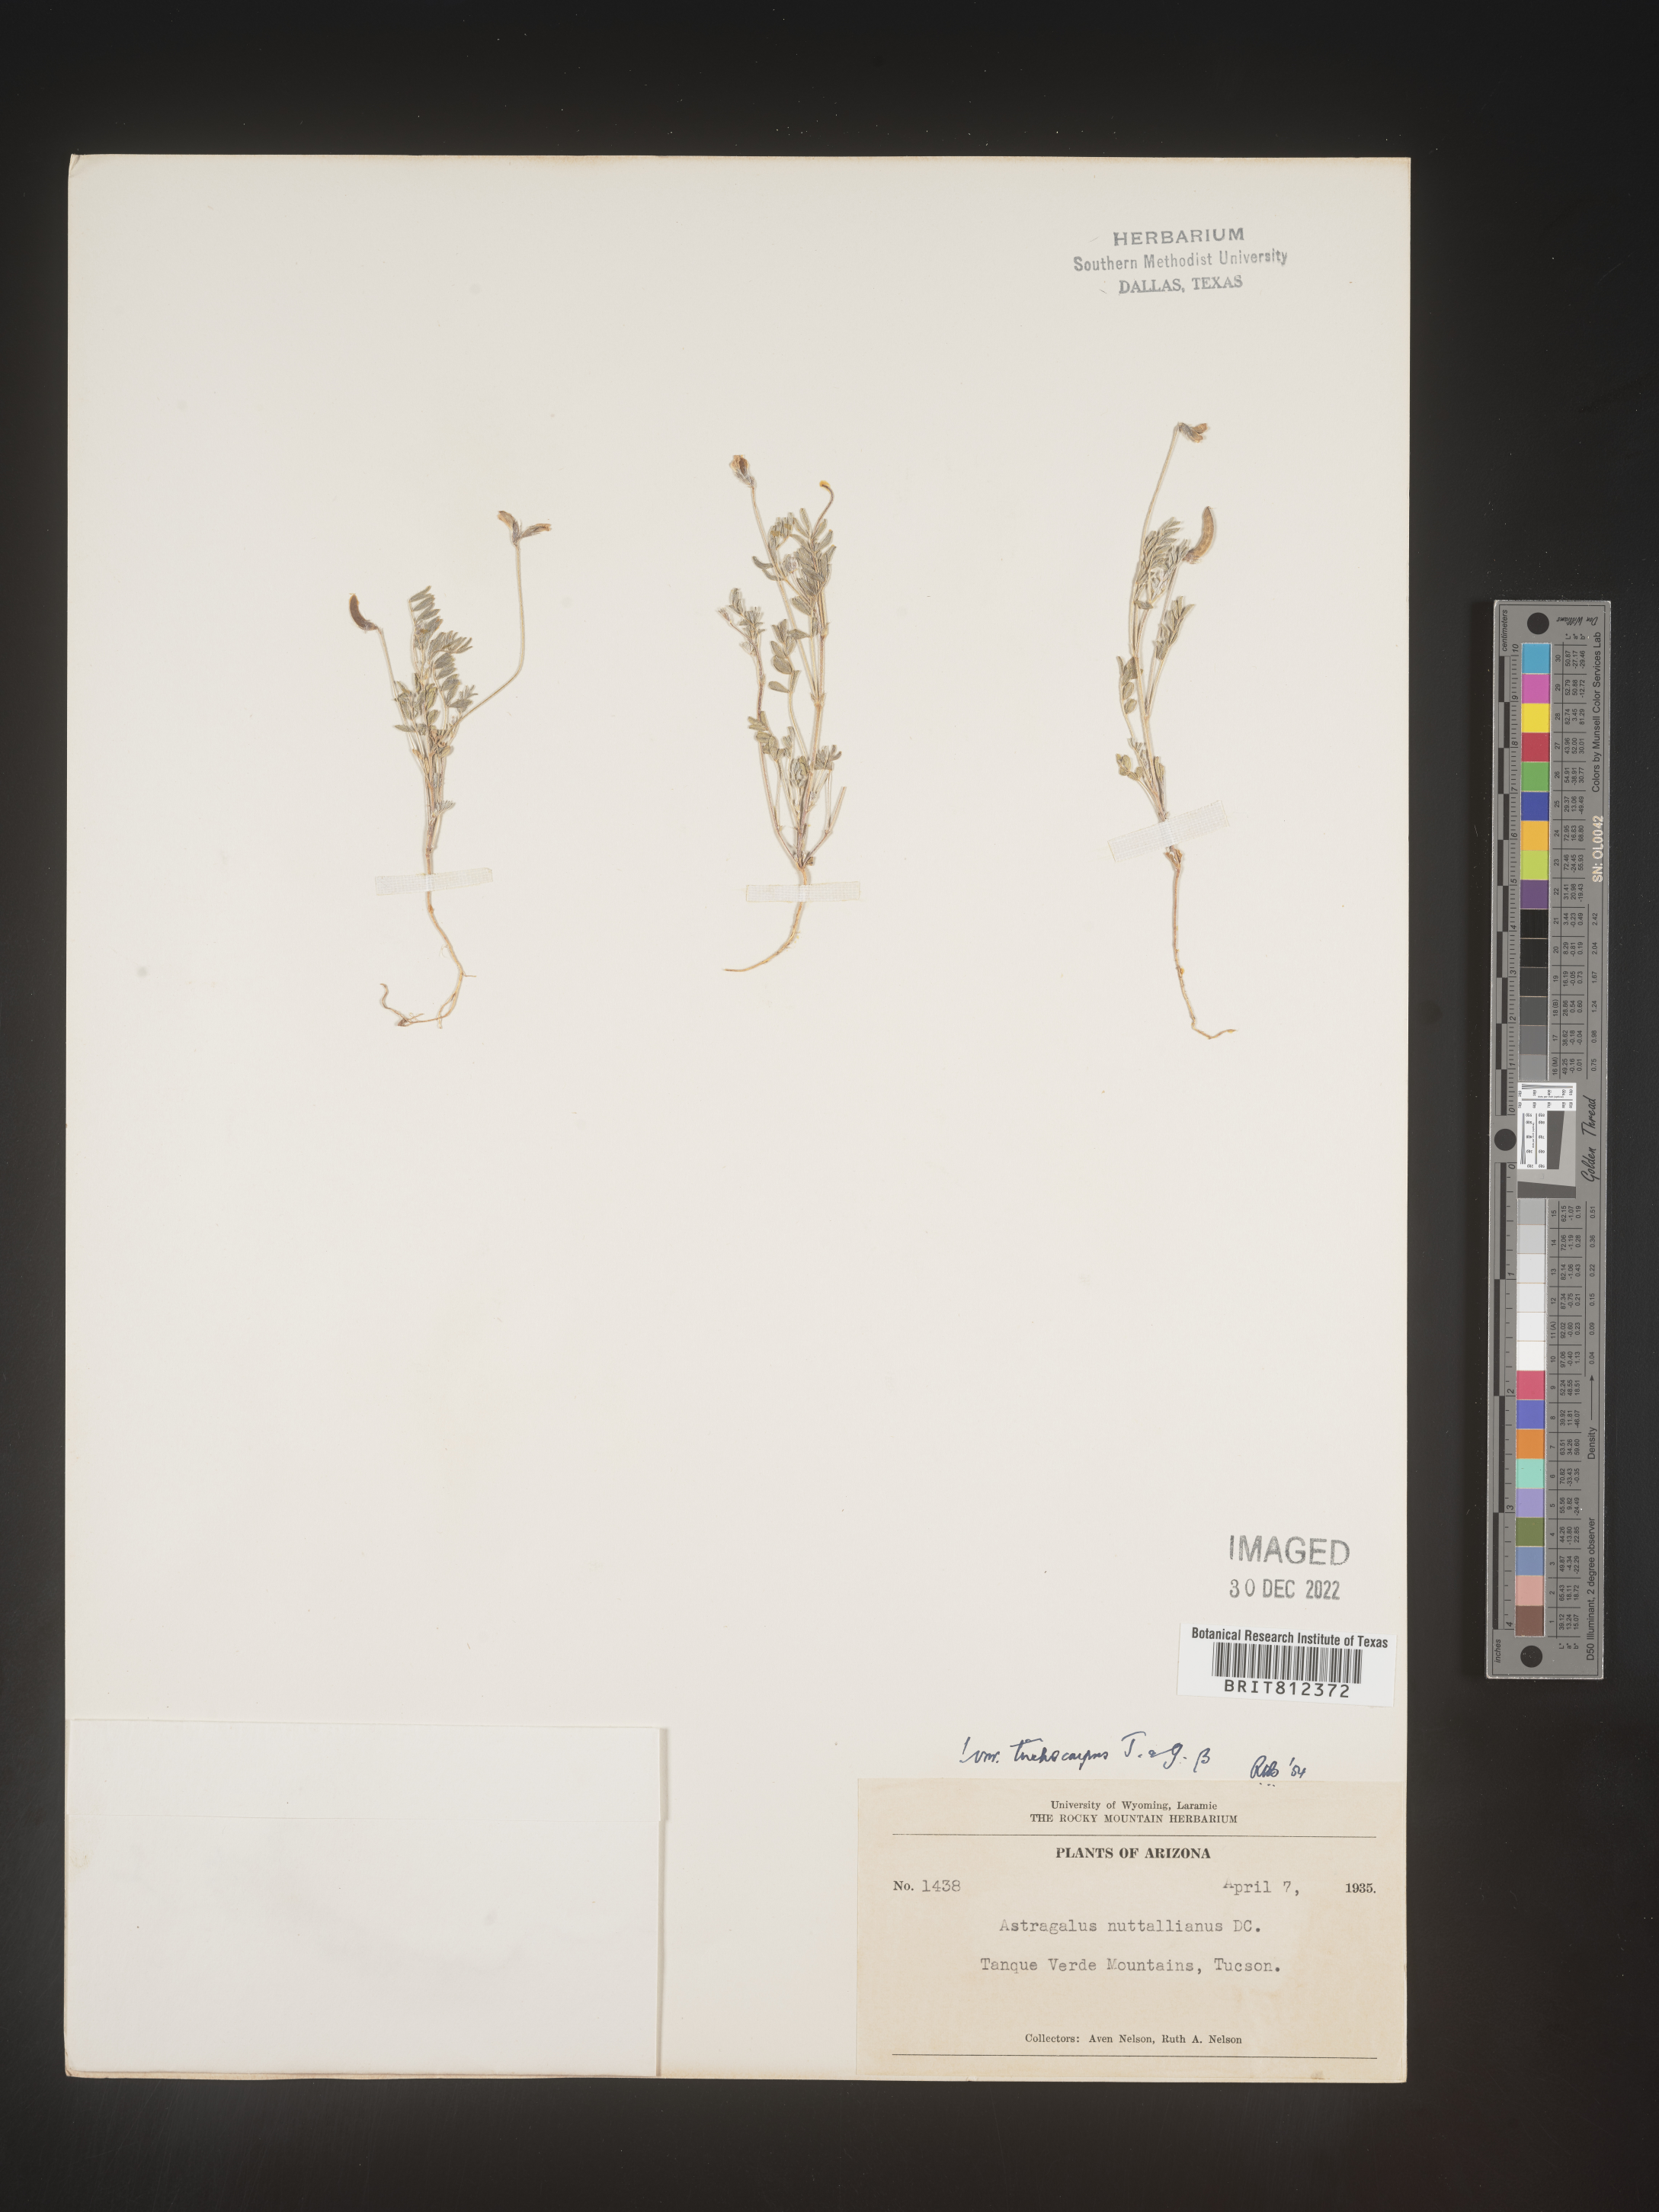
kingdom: Plantae
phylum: Tracheophyta
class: Magnoliopsida
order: Fabales
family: Fabaceae
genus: Astragalus
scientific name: Astragalus nuttallianus
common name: Smallflowered milkvetch
